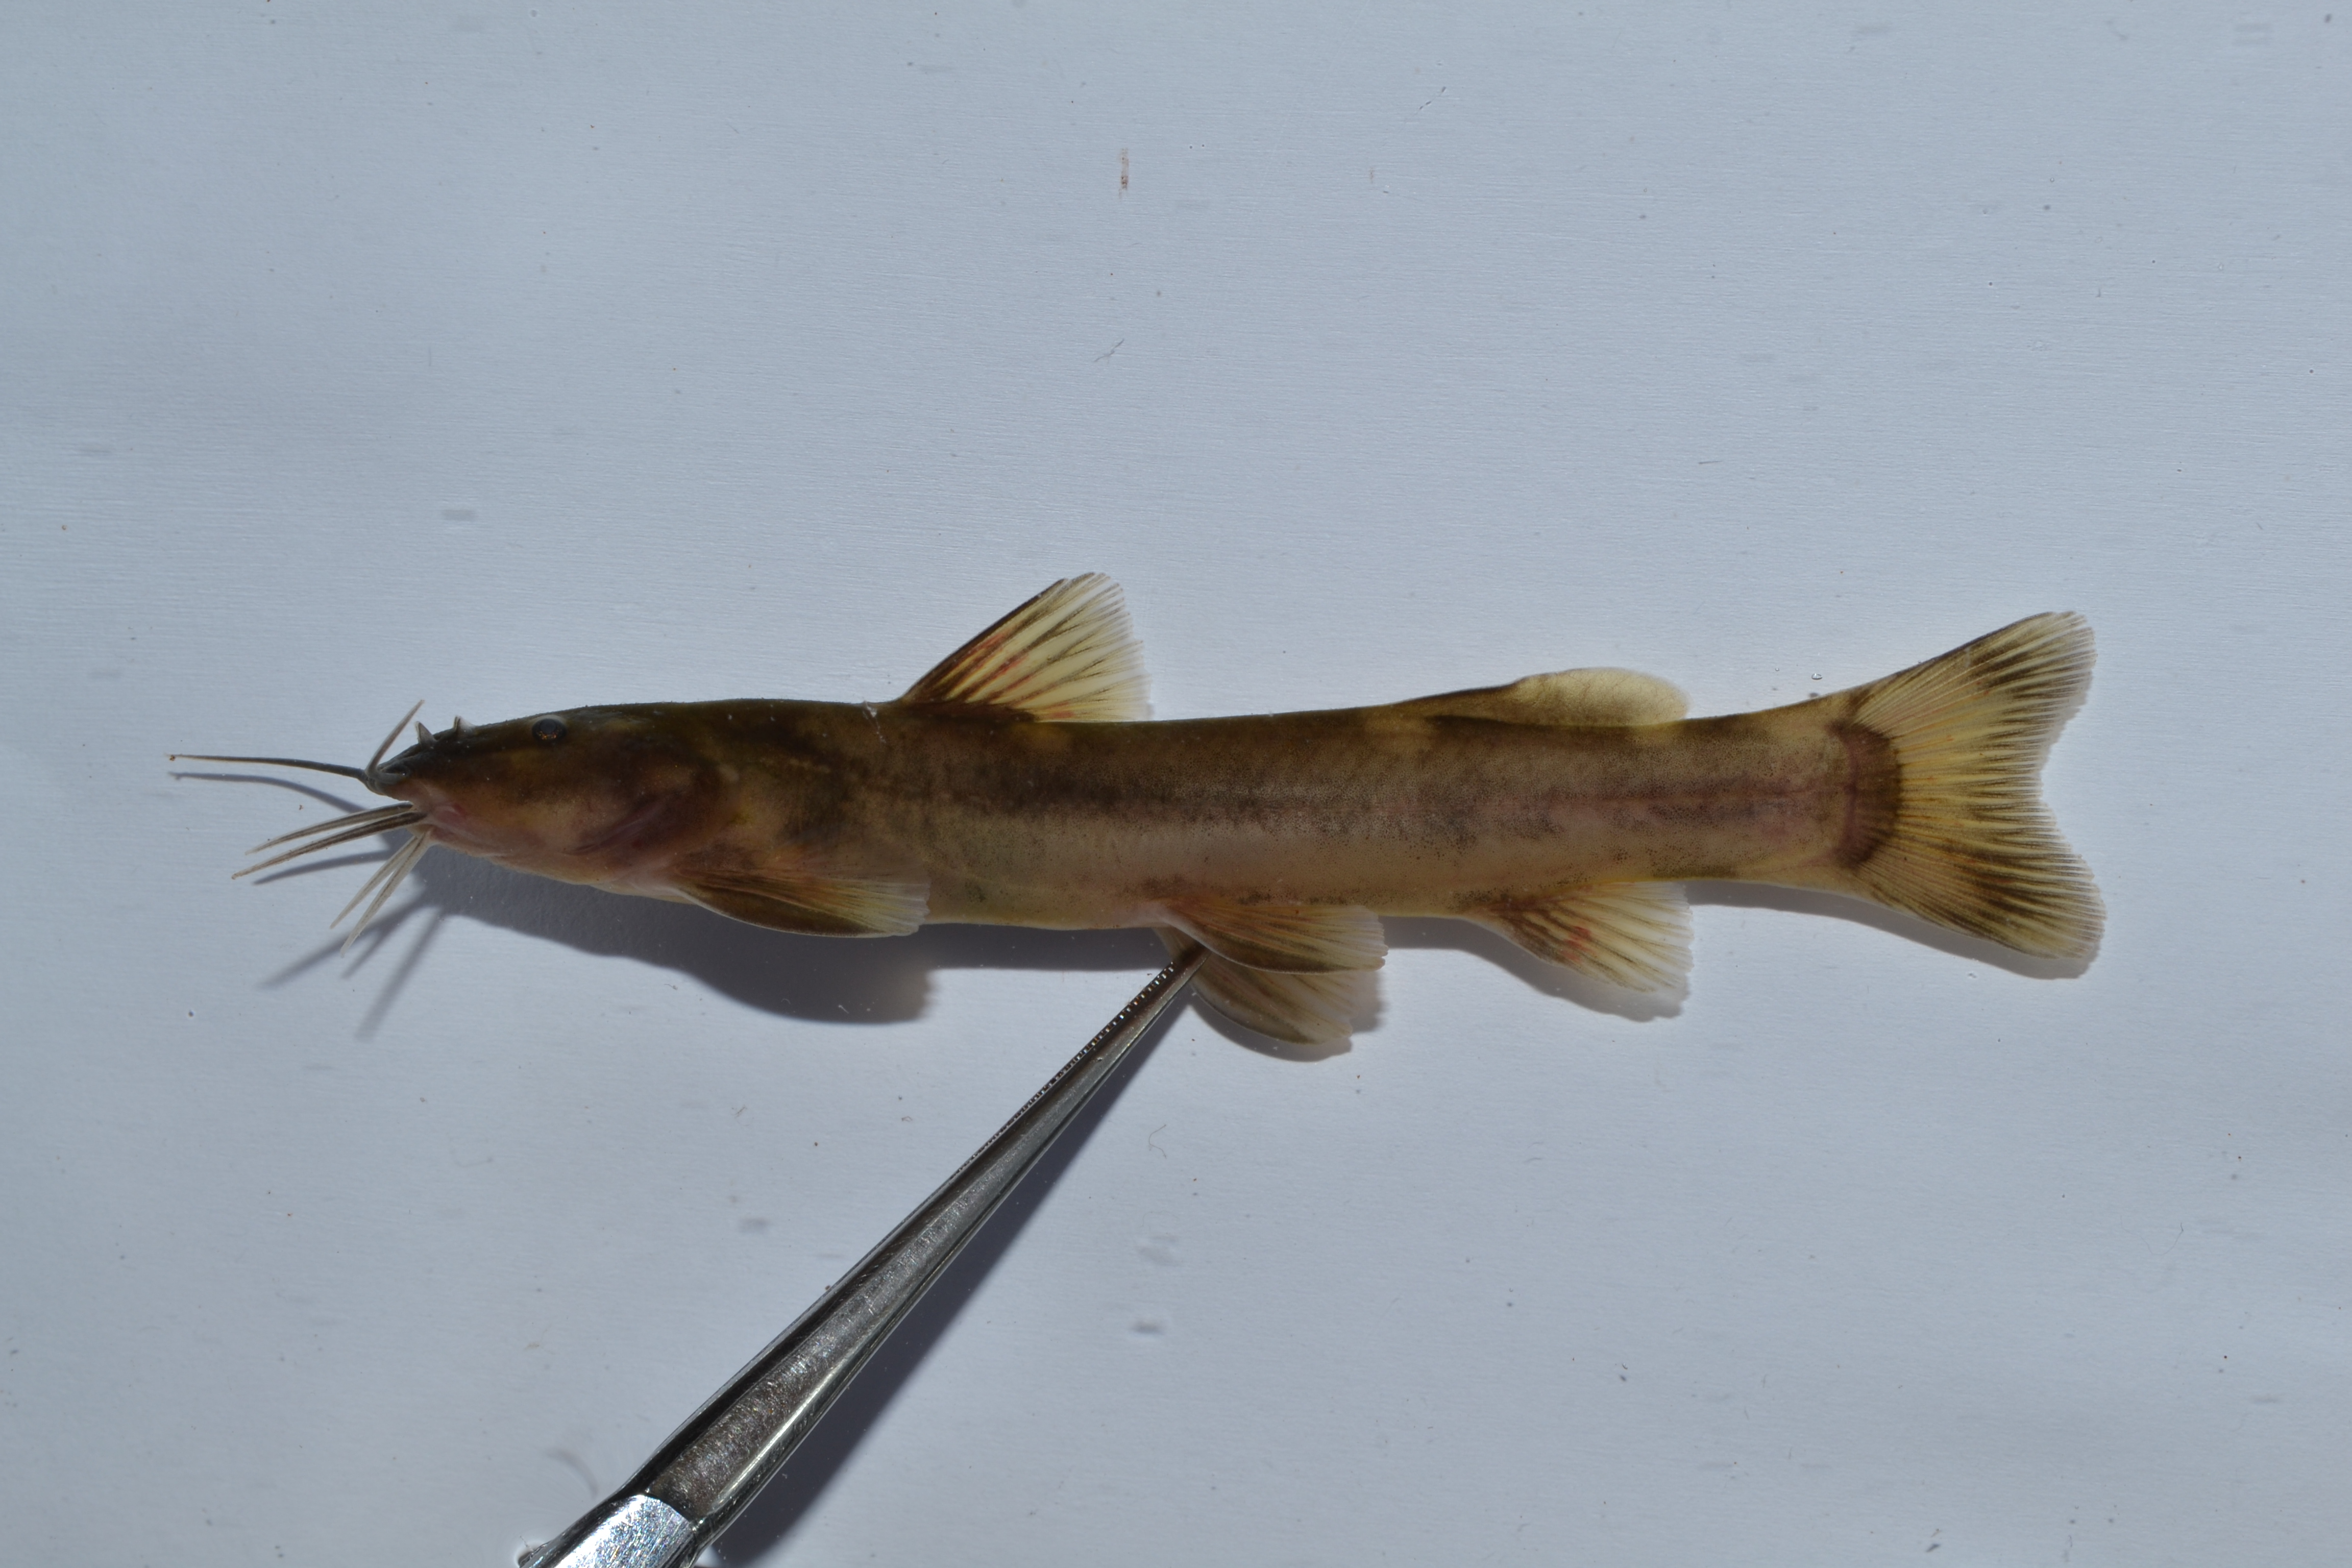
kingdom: Animalia
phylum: Chordata
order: Siluriformes
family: Amphiliidae
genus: Amphilius
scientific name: Amphilius uranoscopus
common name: Stargazer mountain catfish
